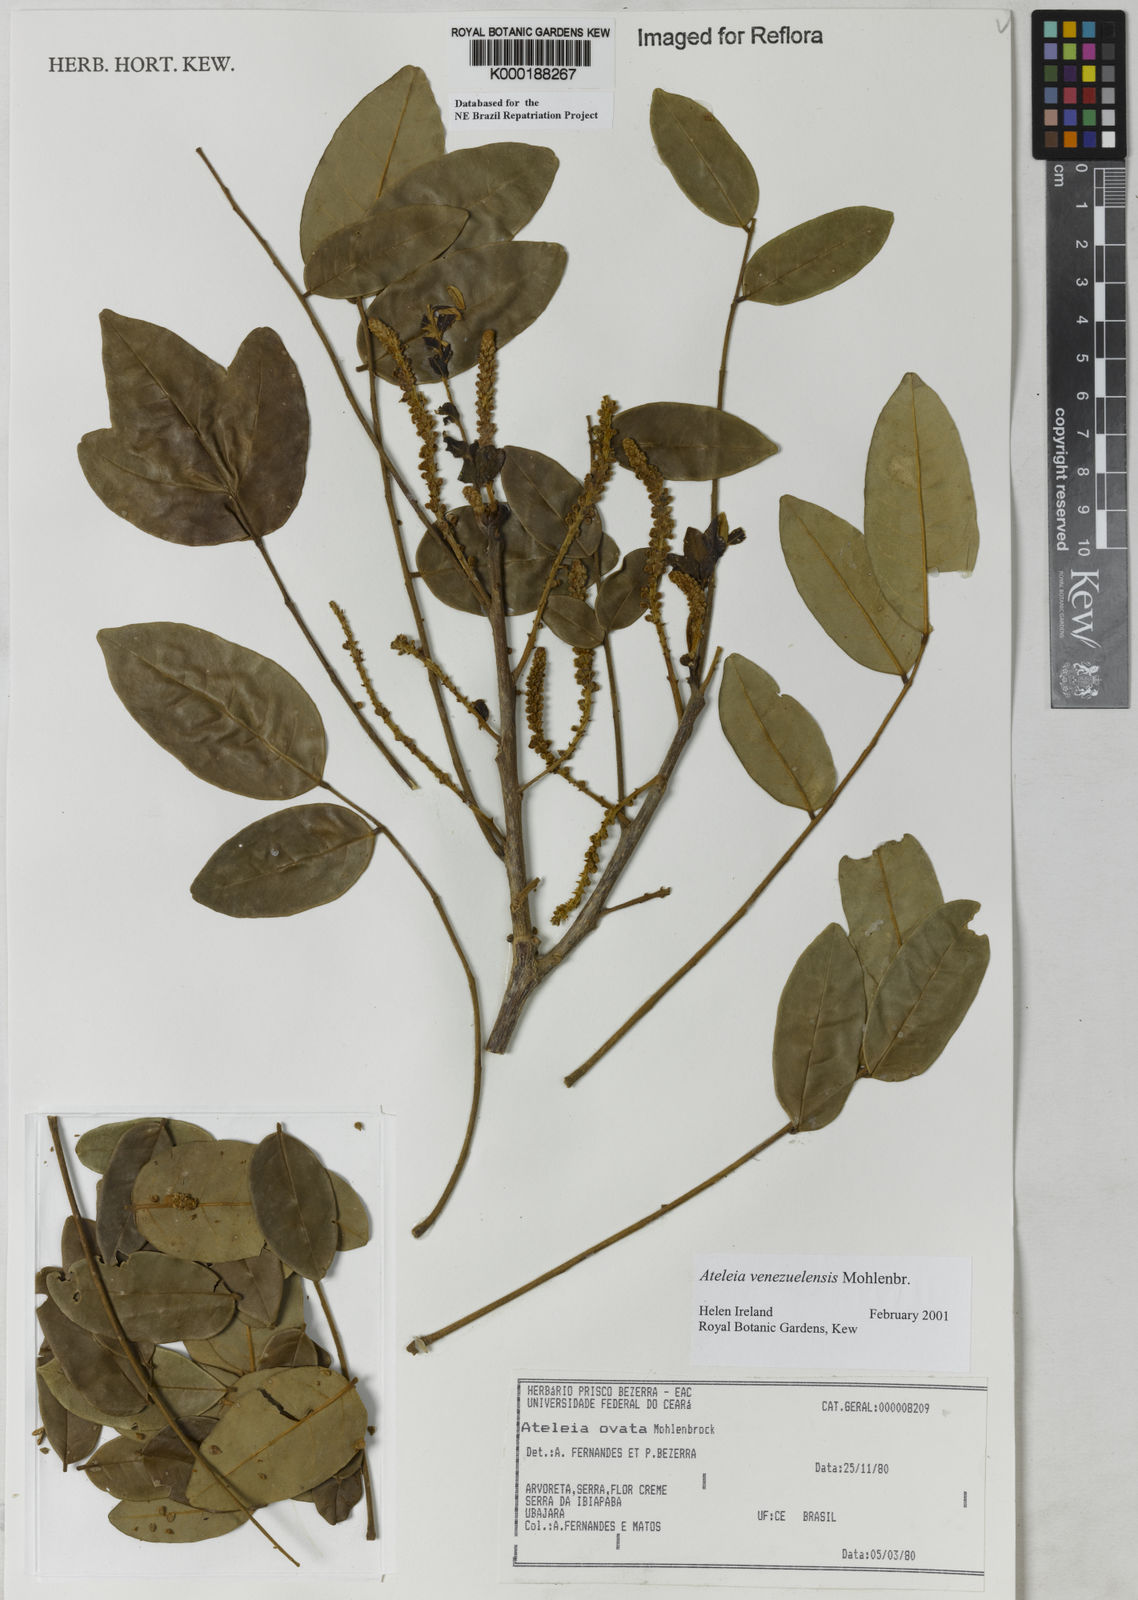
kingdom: Plantae
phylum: Tracheophyta
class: Magnoliopsida
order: Fabales
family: Fabaceae
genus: Ateleia
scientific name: Ateleia venezuelensis
